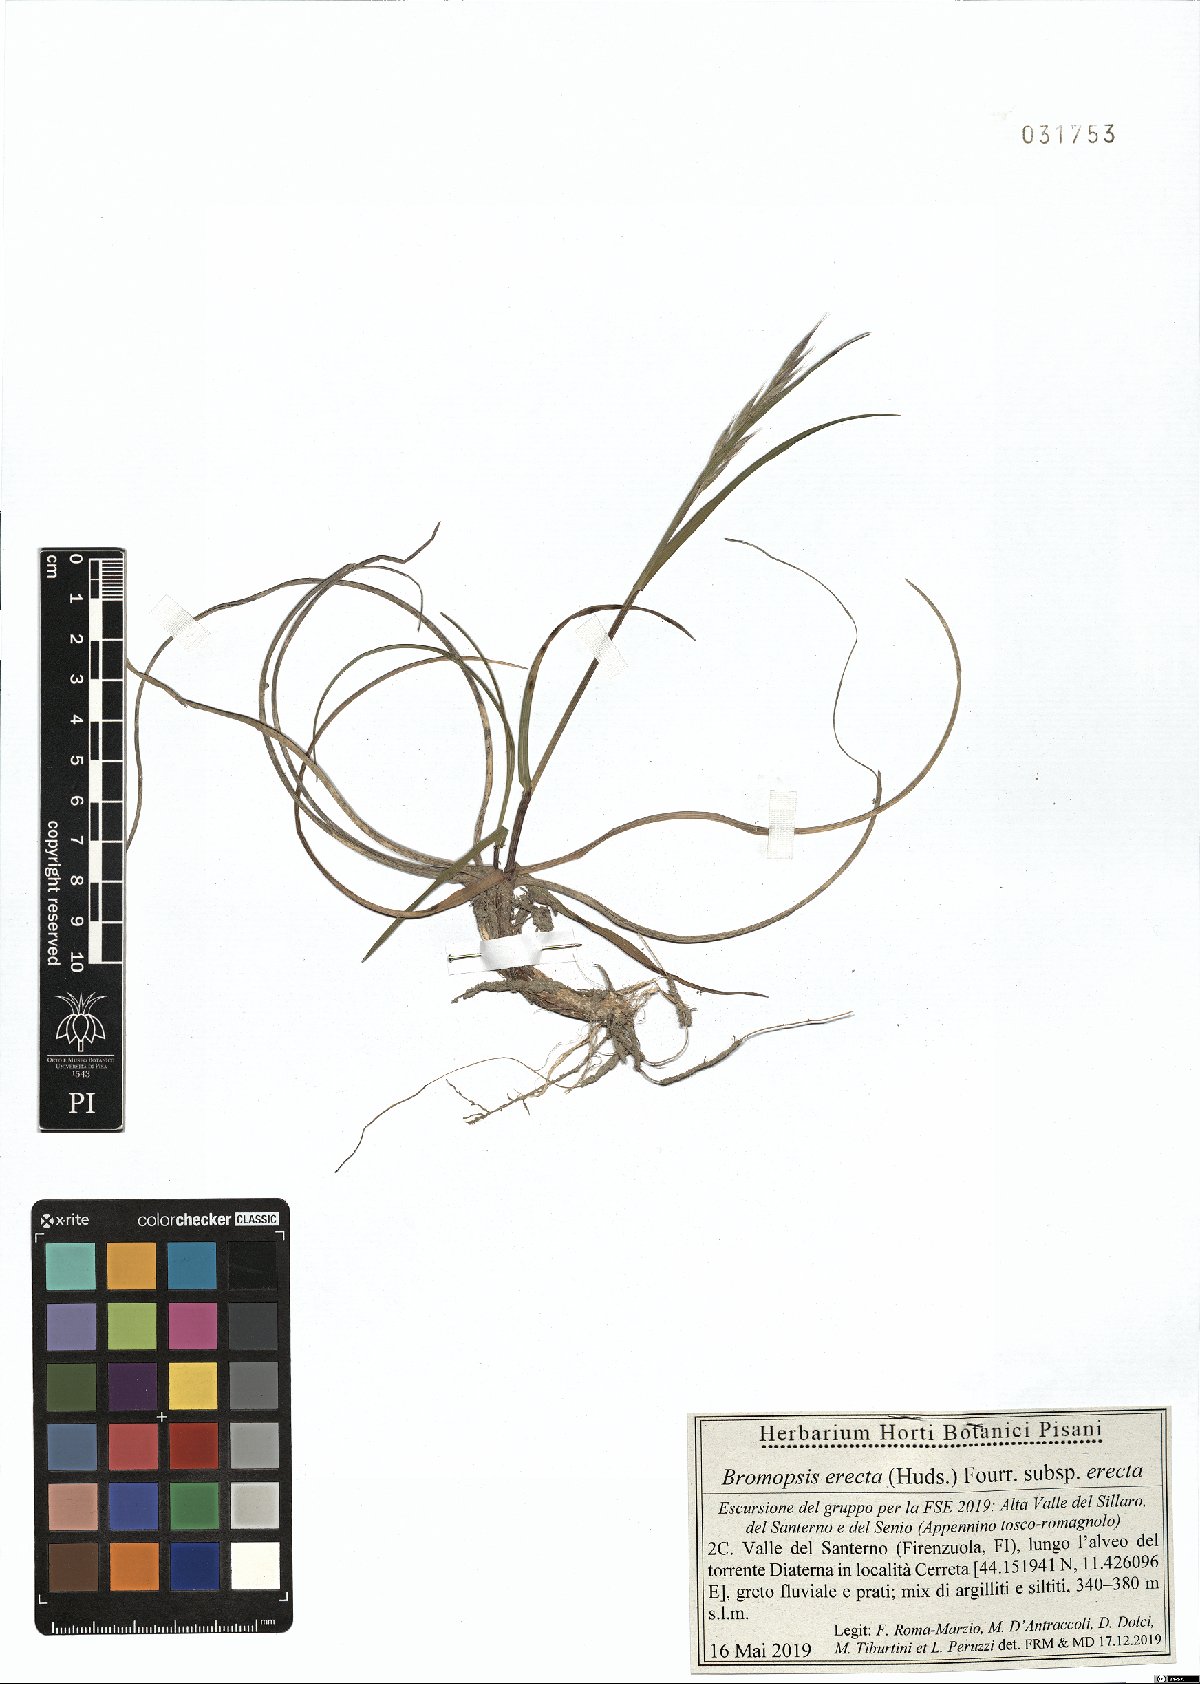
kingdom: Plantae
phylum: Tracheophyta
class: Liliopsida
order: Poales
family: Poaceae
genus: Bromus
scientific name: Bromus erectus
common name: Erect brome
